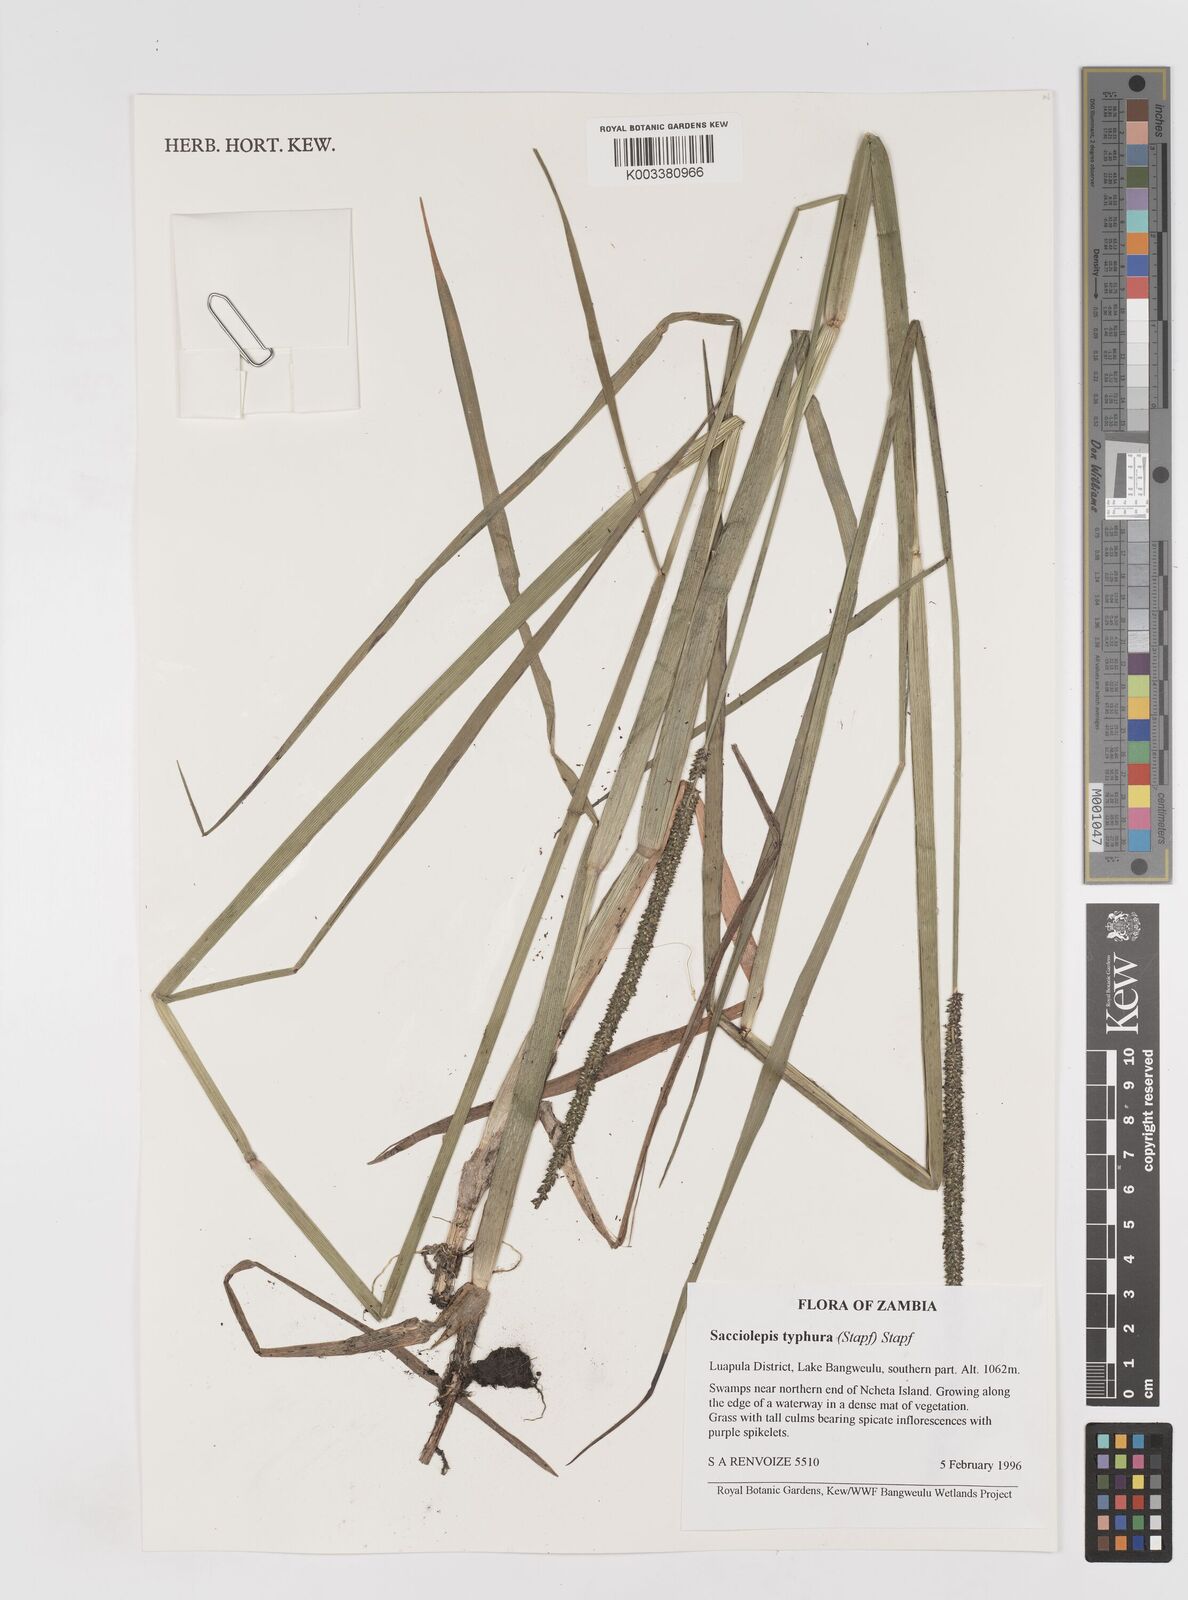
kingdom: Plantae
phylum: Tracheophyta
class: Liliopsida
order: Poales
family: Poaceae
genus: Sacciolepis
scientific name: Sacciolepis typhura
